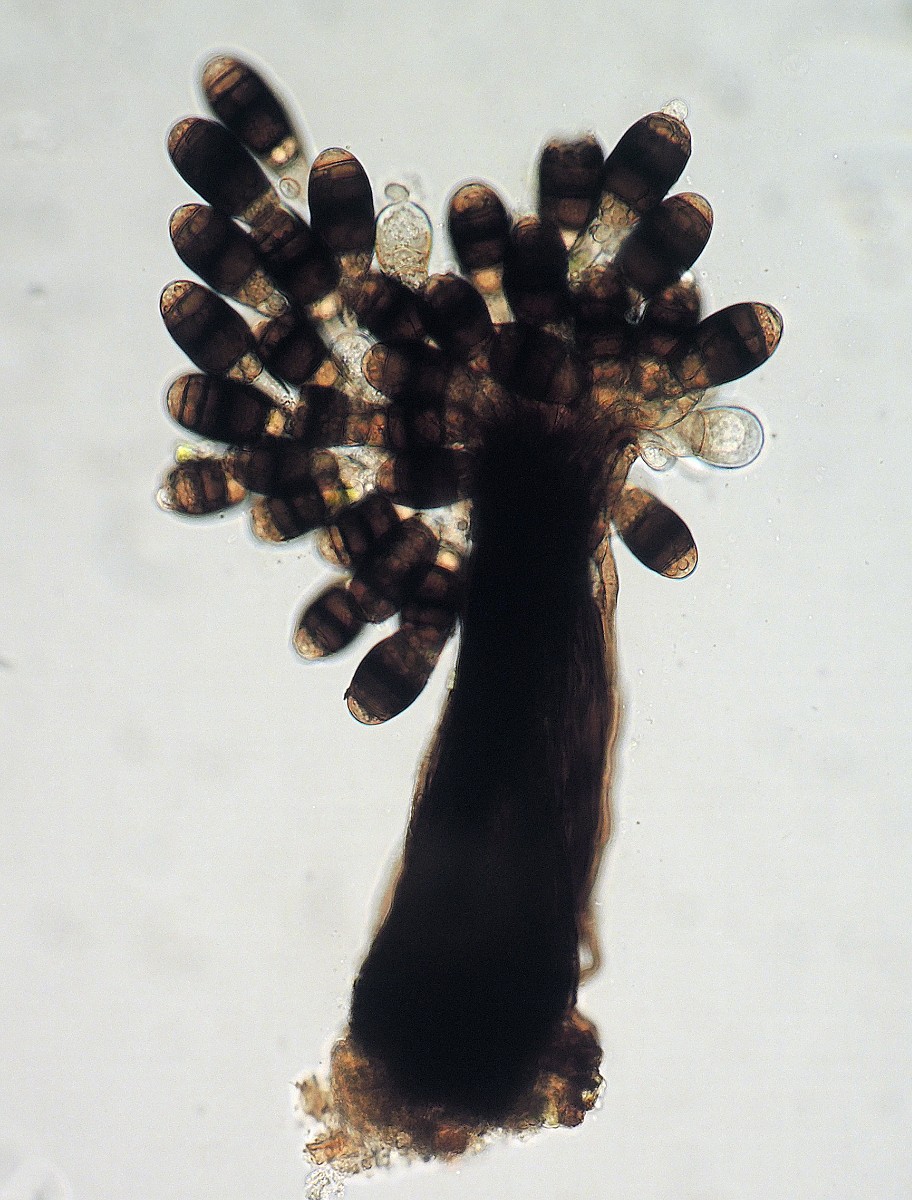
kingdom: Fungi
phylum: Ascomycota
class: Dothideomycetes
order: Pleosporales
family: Melanommataceae
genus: Phragmocephala
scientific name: Phragmocephala atra
